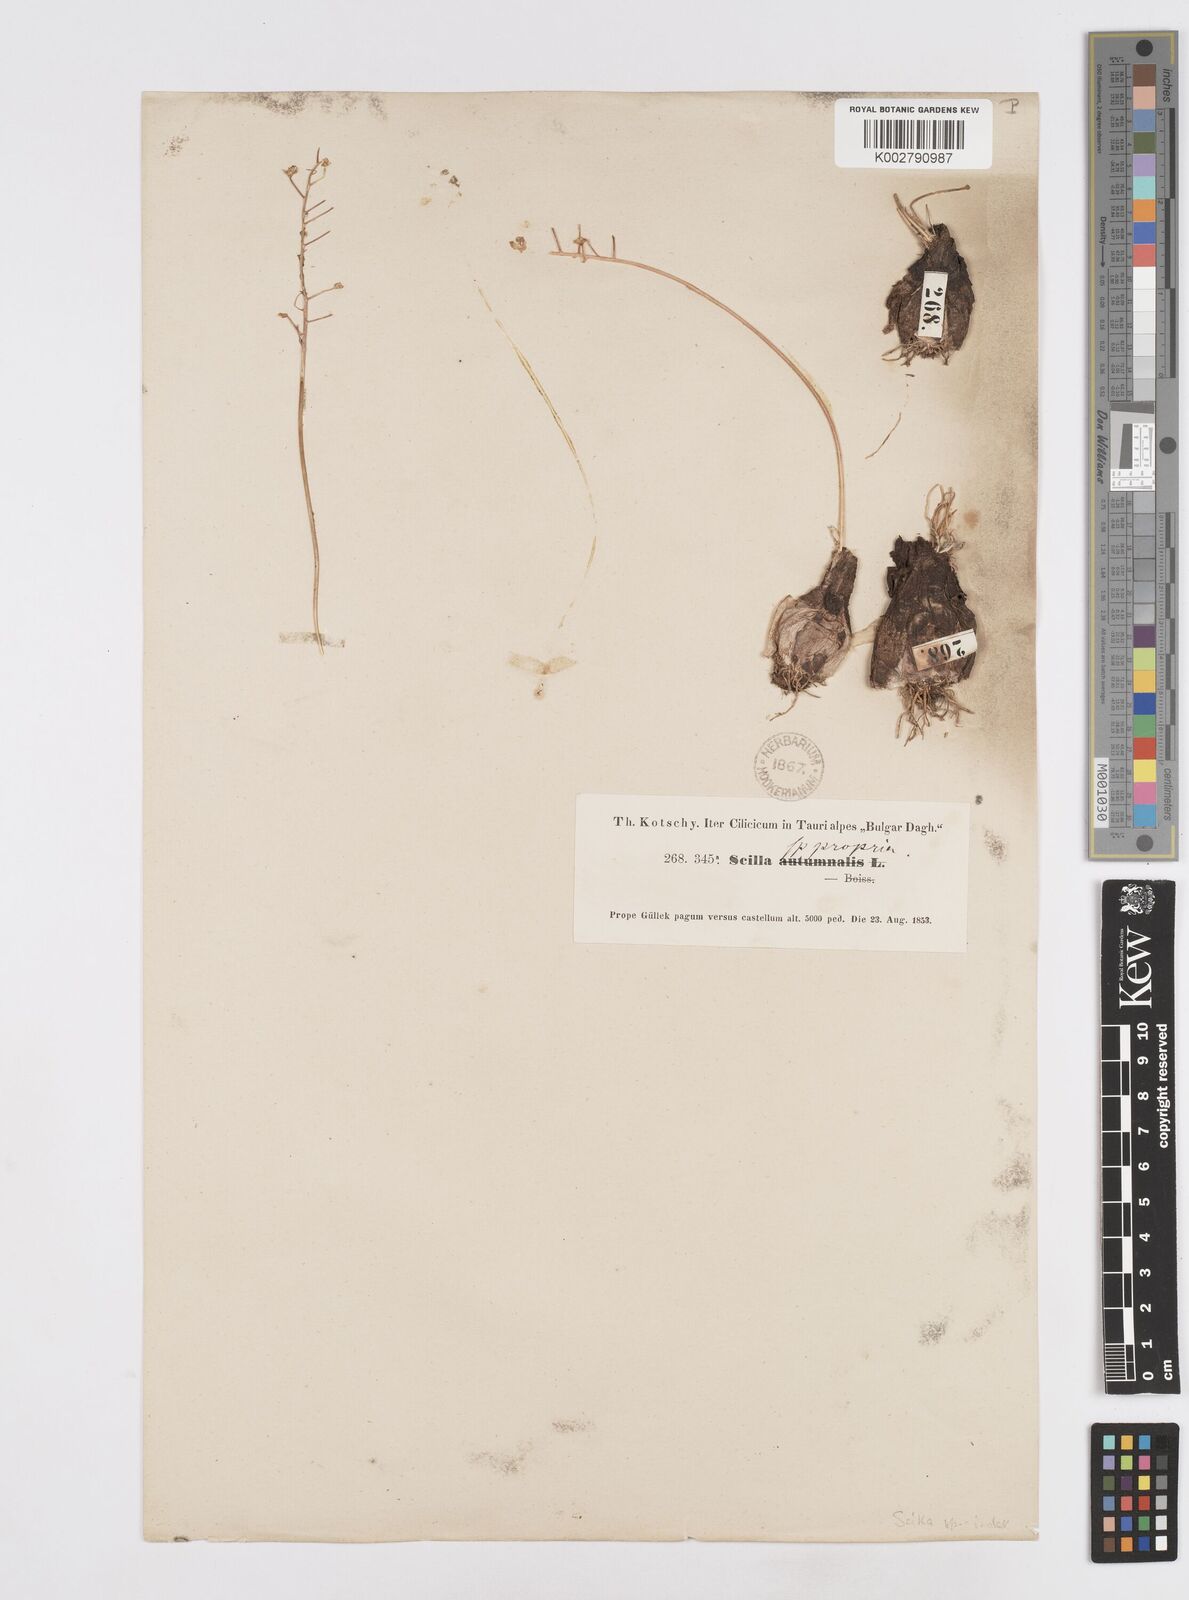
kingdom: Plantae
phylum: Tracheophyta
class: Liliopsida
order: Asparagales
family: Asparagaceae
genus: Scilla
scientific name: Scilla
